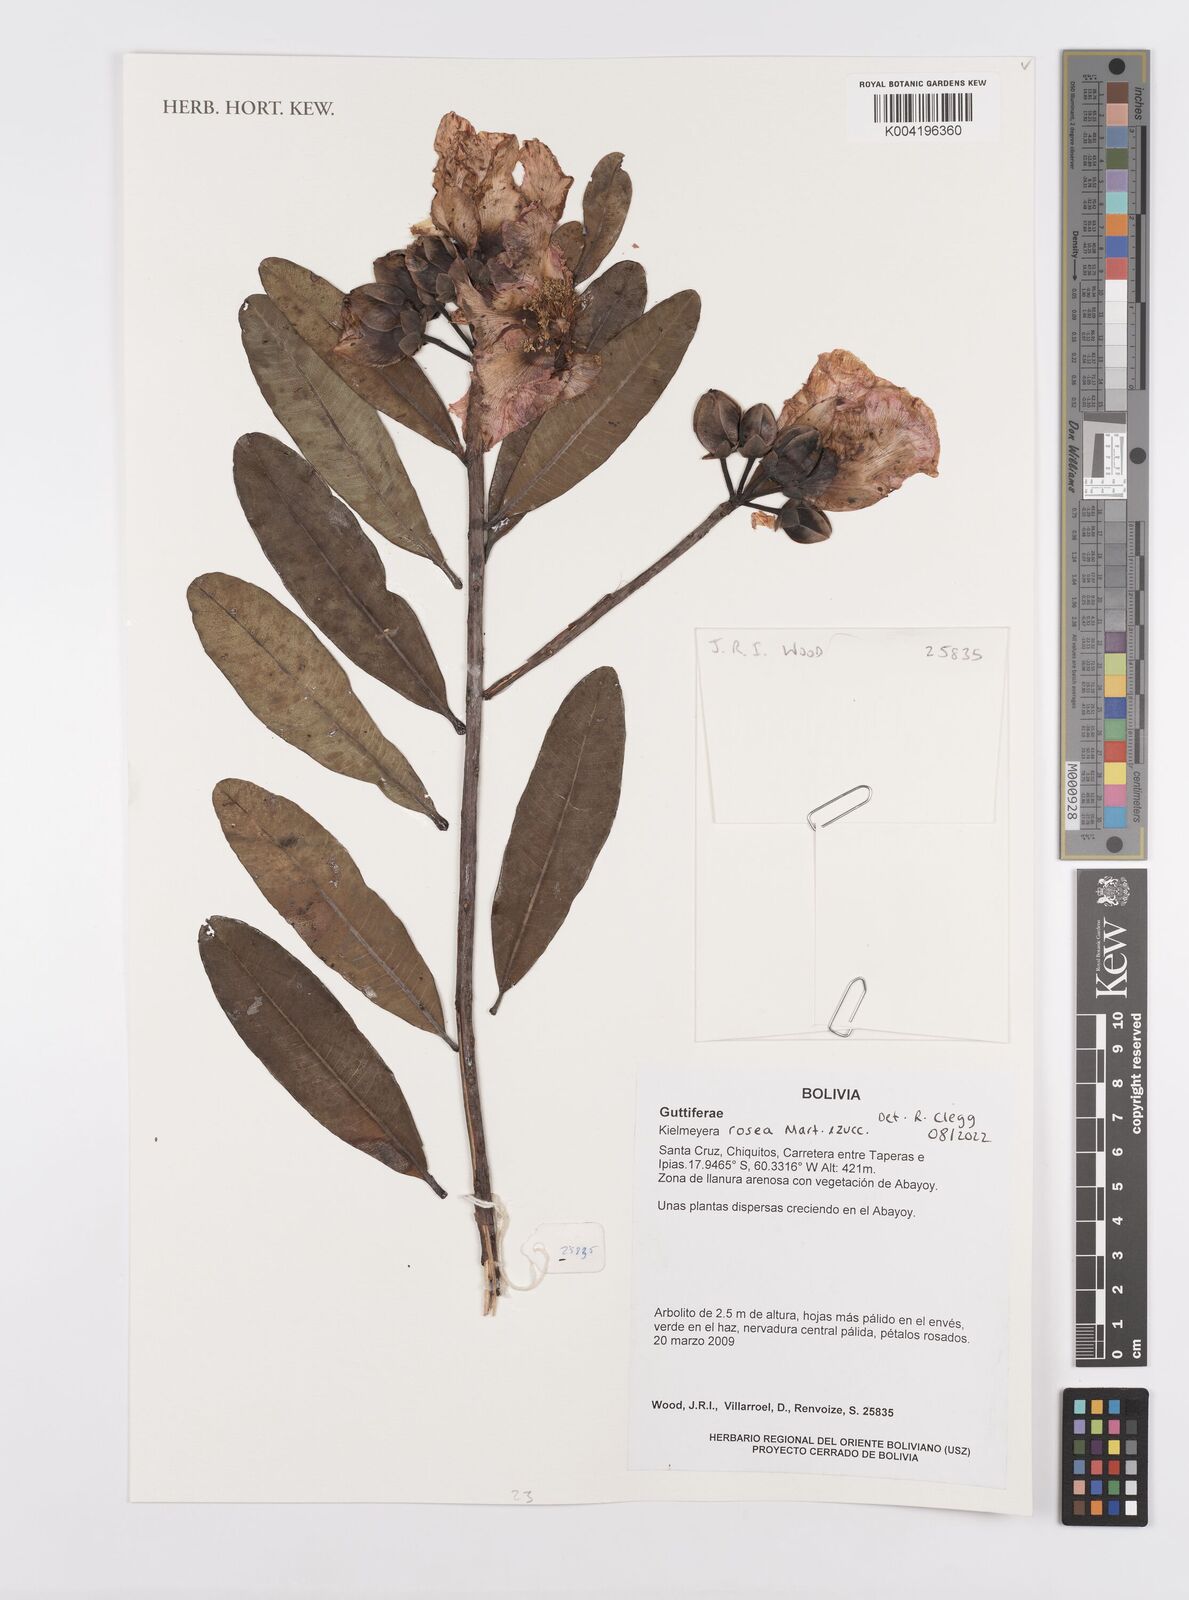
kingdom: Plantae
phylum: Tracheophyta
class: Magnoliopsida
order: Malpighiales
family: Calophyllaceae
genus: Kielmeyera
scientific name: Kielmeyera rosea
